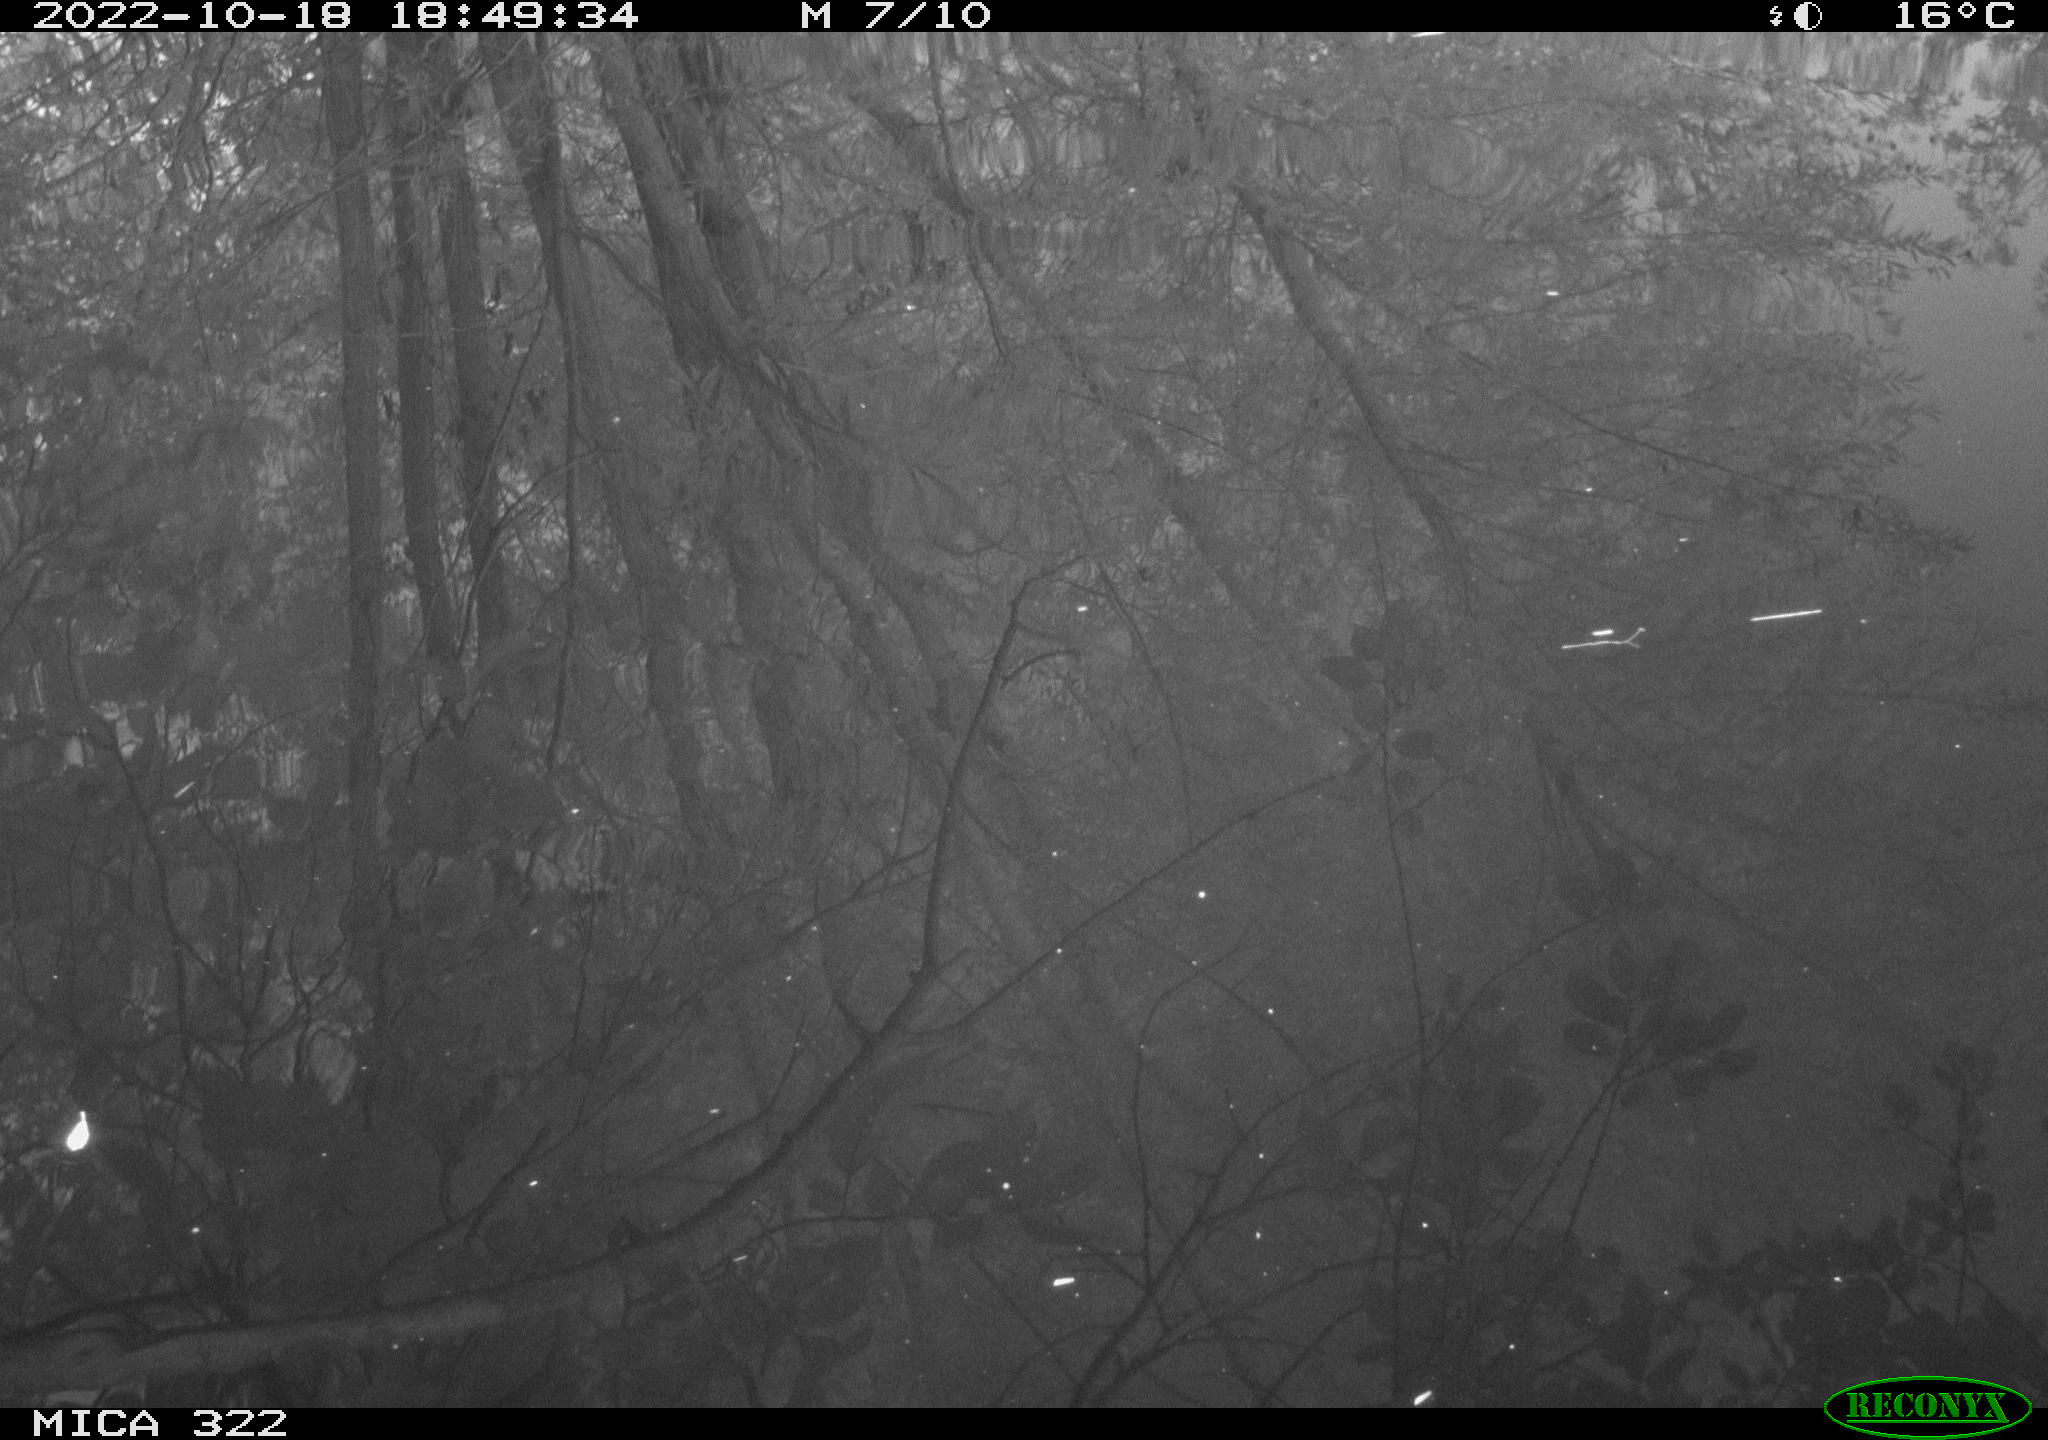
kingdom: Animalia
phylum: Chordata
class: Aves
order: Gruiformes
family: Rallidae
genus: Gallinula
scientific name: Gallinula chloropus
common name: Common moorhen
